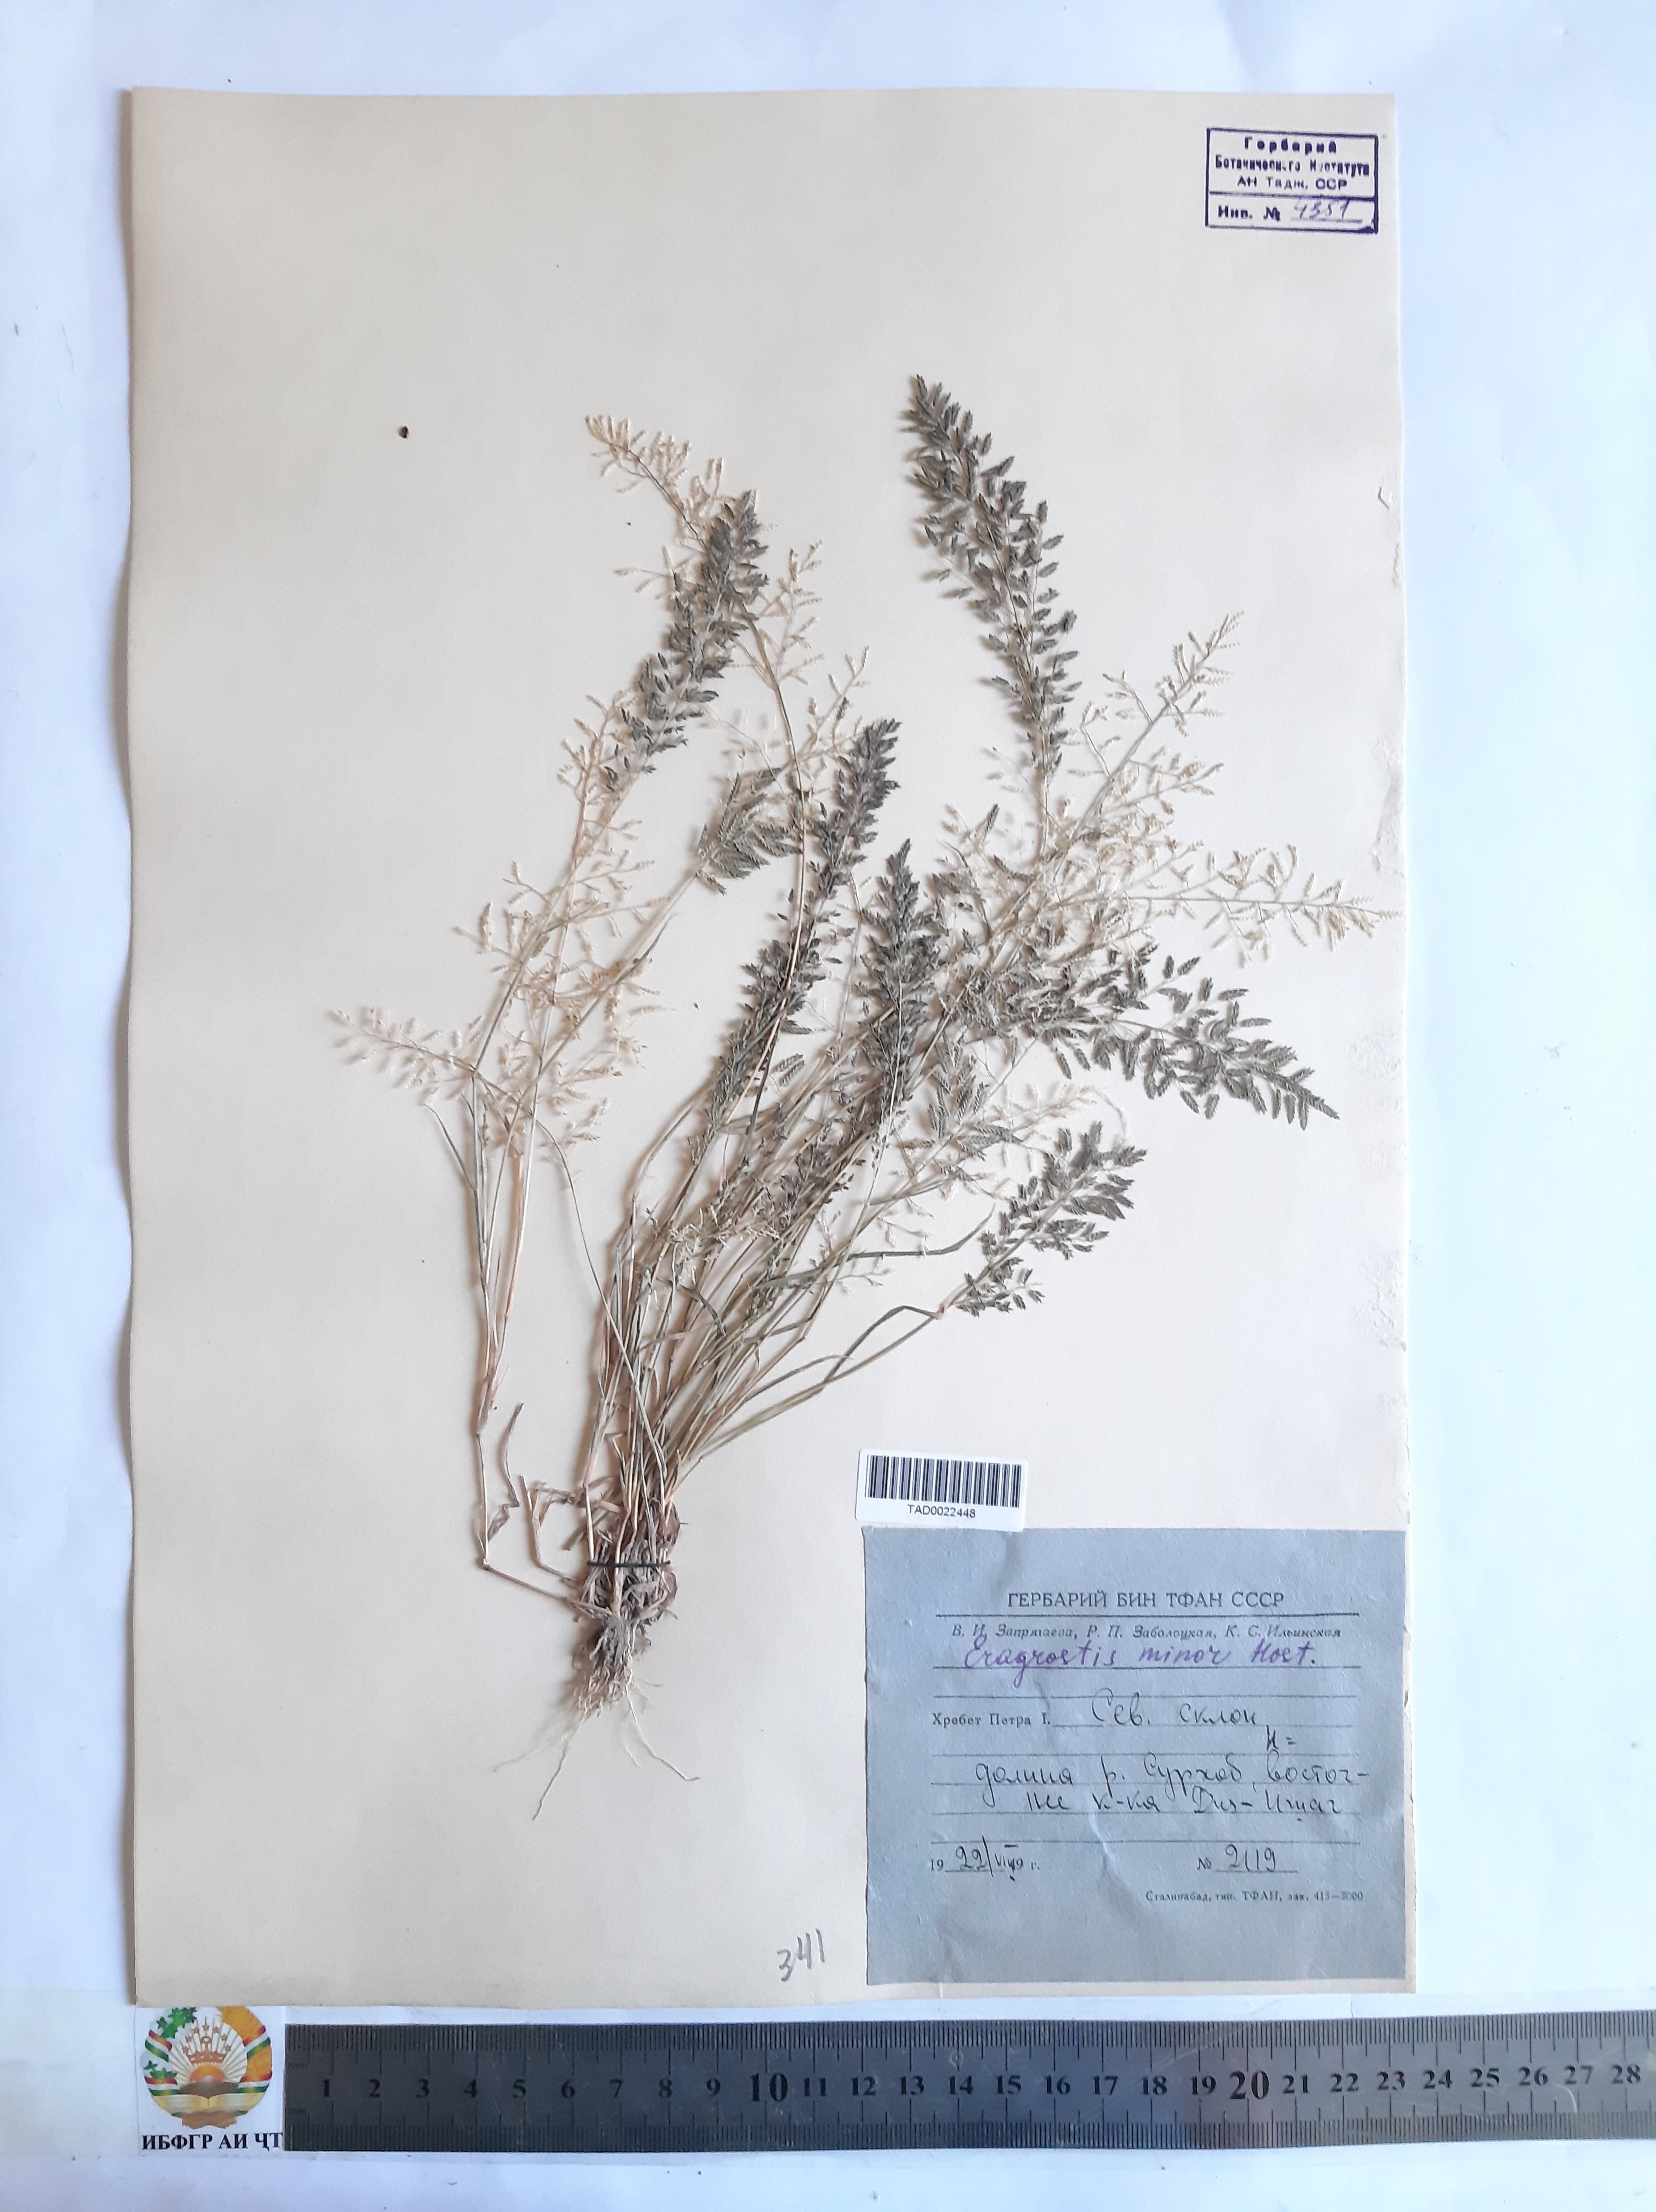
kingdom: Plantae
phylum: Tracheophyta
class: Liliopsida
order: Poales
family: Poaceae
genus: Eragrostis
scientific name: Eragrostis minor
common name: Small love-grass
